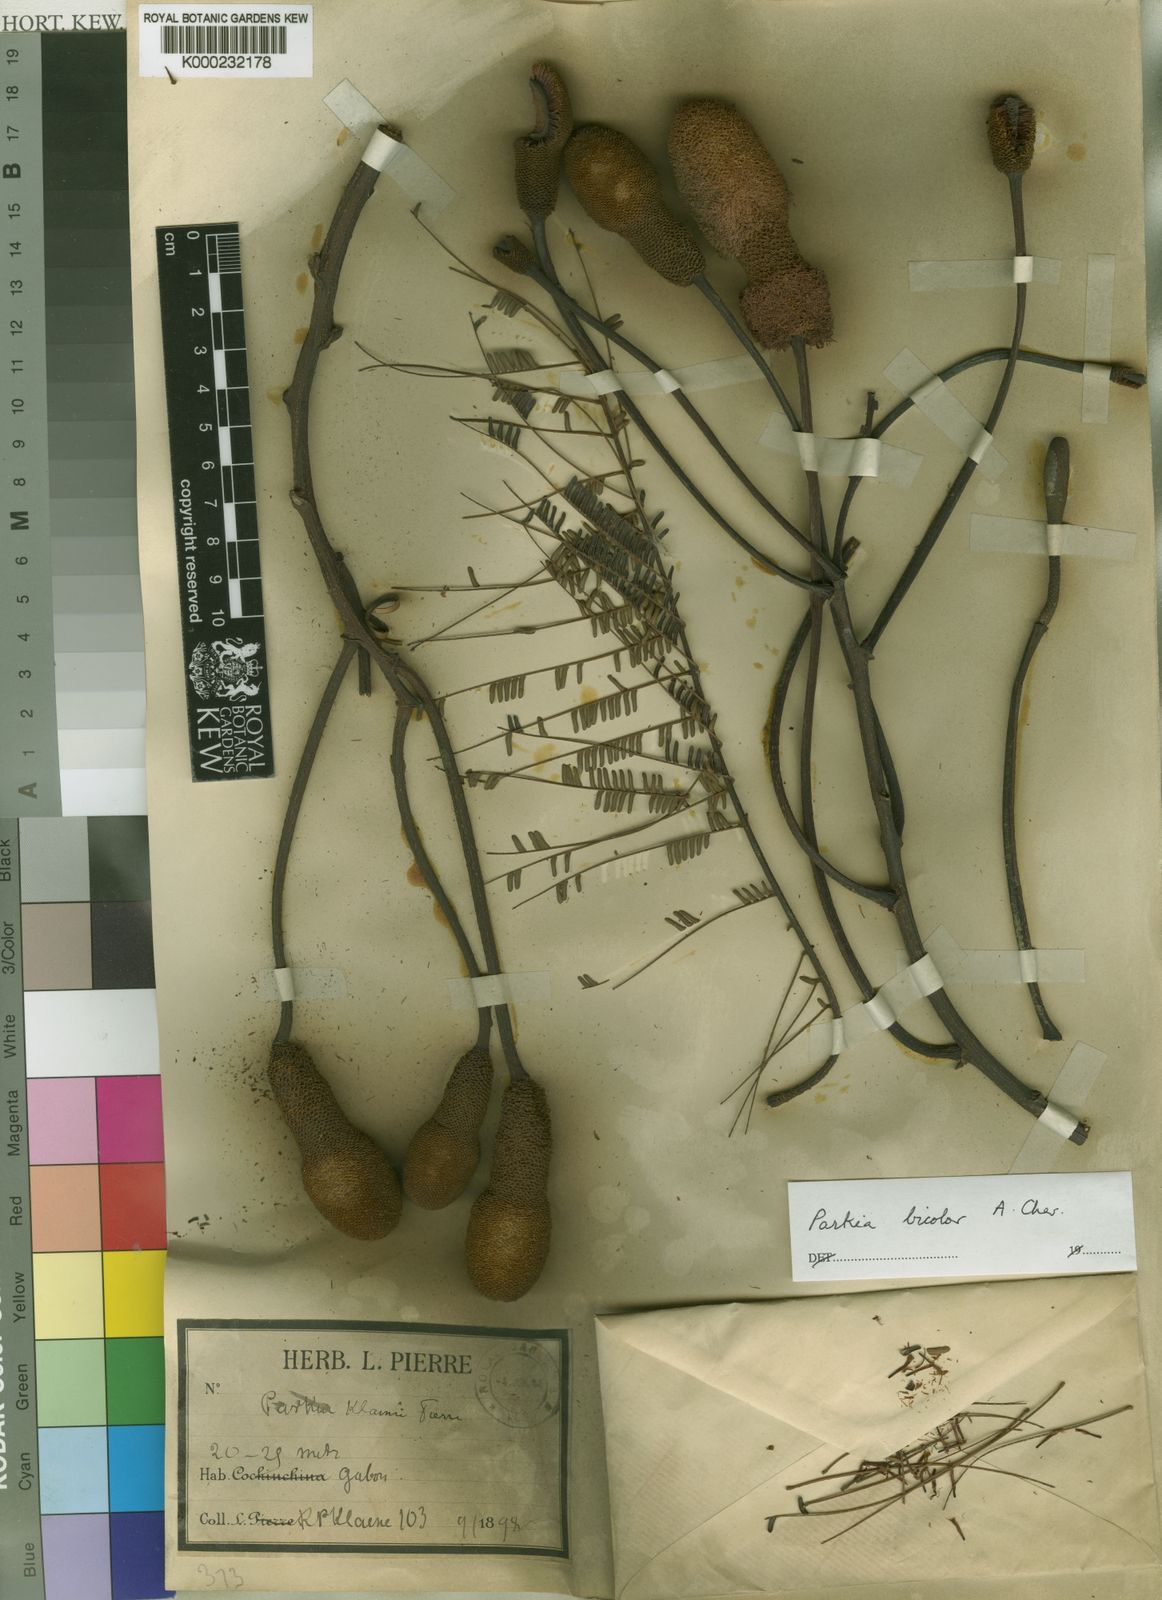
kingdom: Plantae
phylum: Tracheophyta
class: Magnoliopsida
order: Fabales
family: Fabaceae
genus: Parkia
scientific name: Parkia bicolor
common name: African locust-bean
